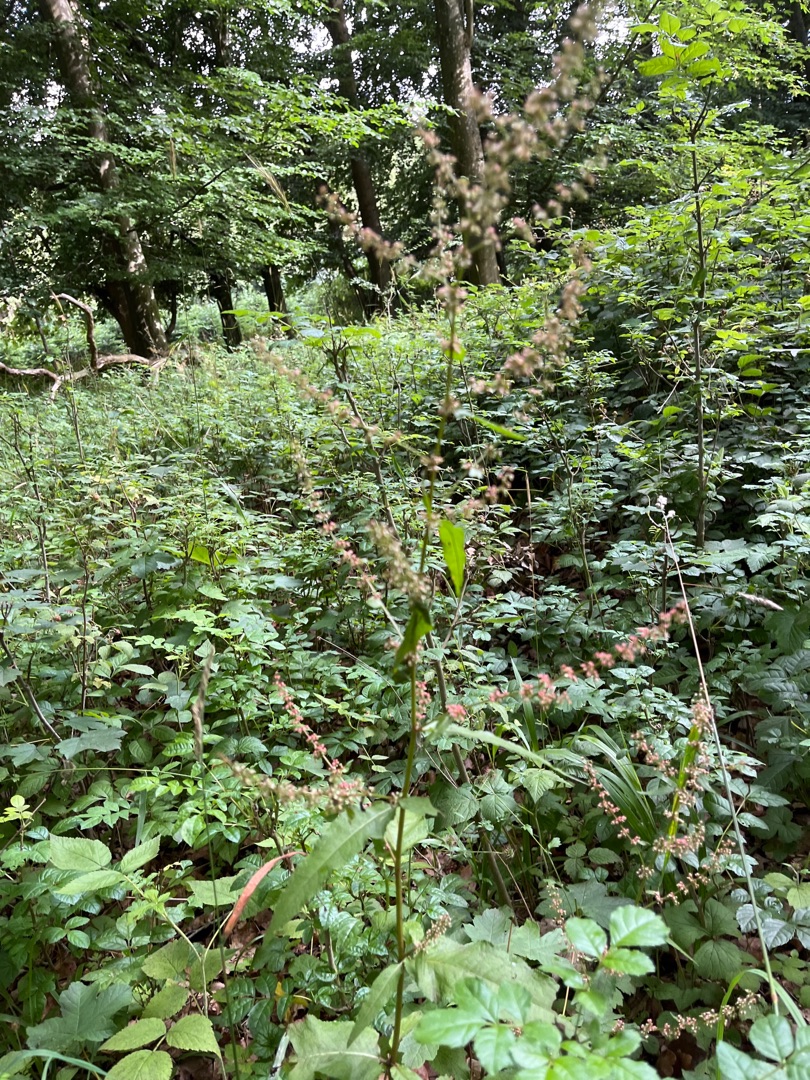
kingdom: Plantae
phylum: Tracheophyta
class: Magnoliopsida
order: Caryophyllales
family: Polygonaceae
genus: Rumex
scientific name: Rumex sanguineus
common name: Skov-skræppe
